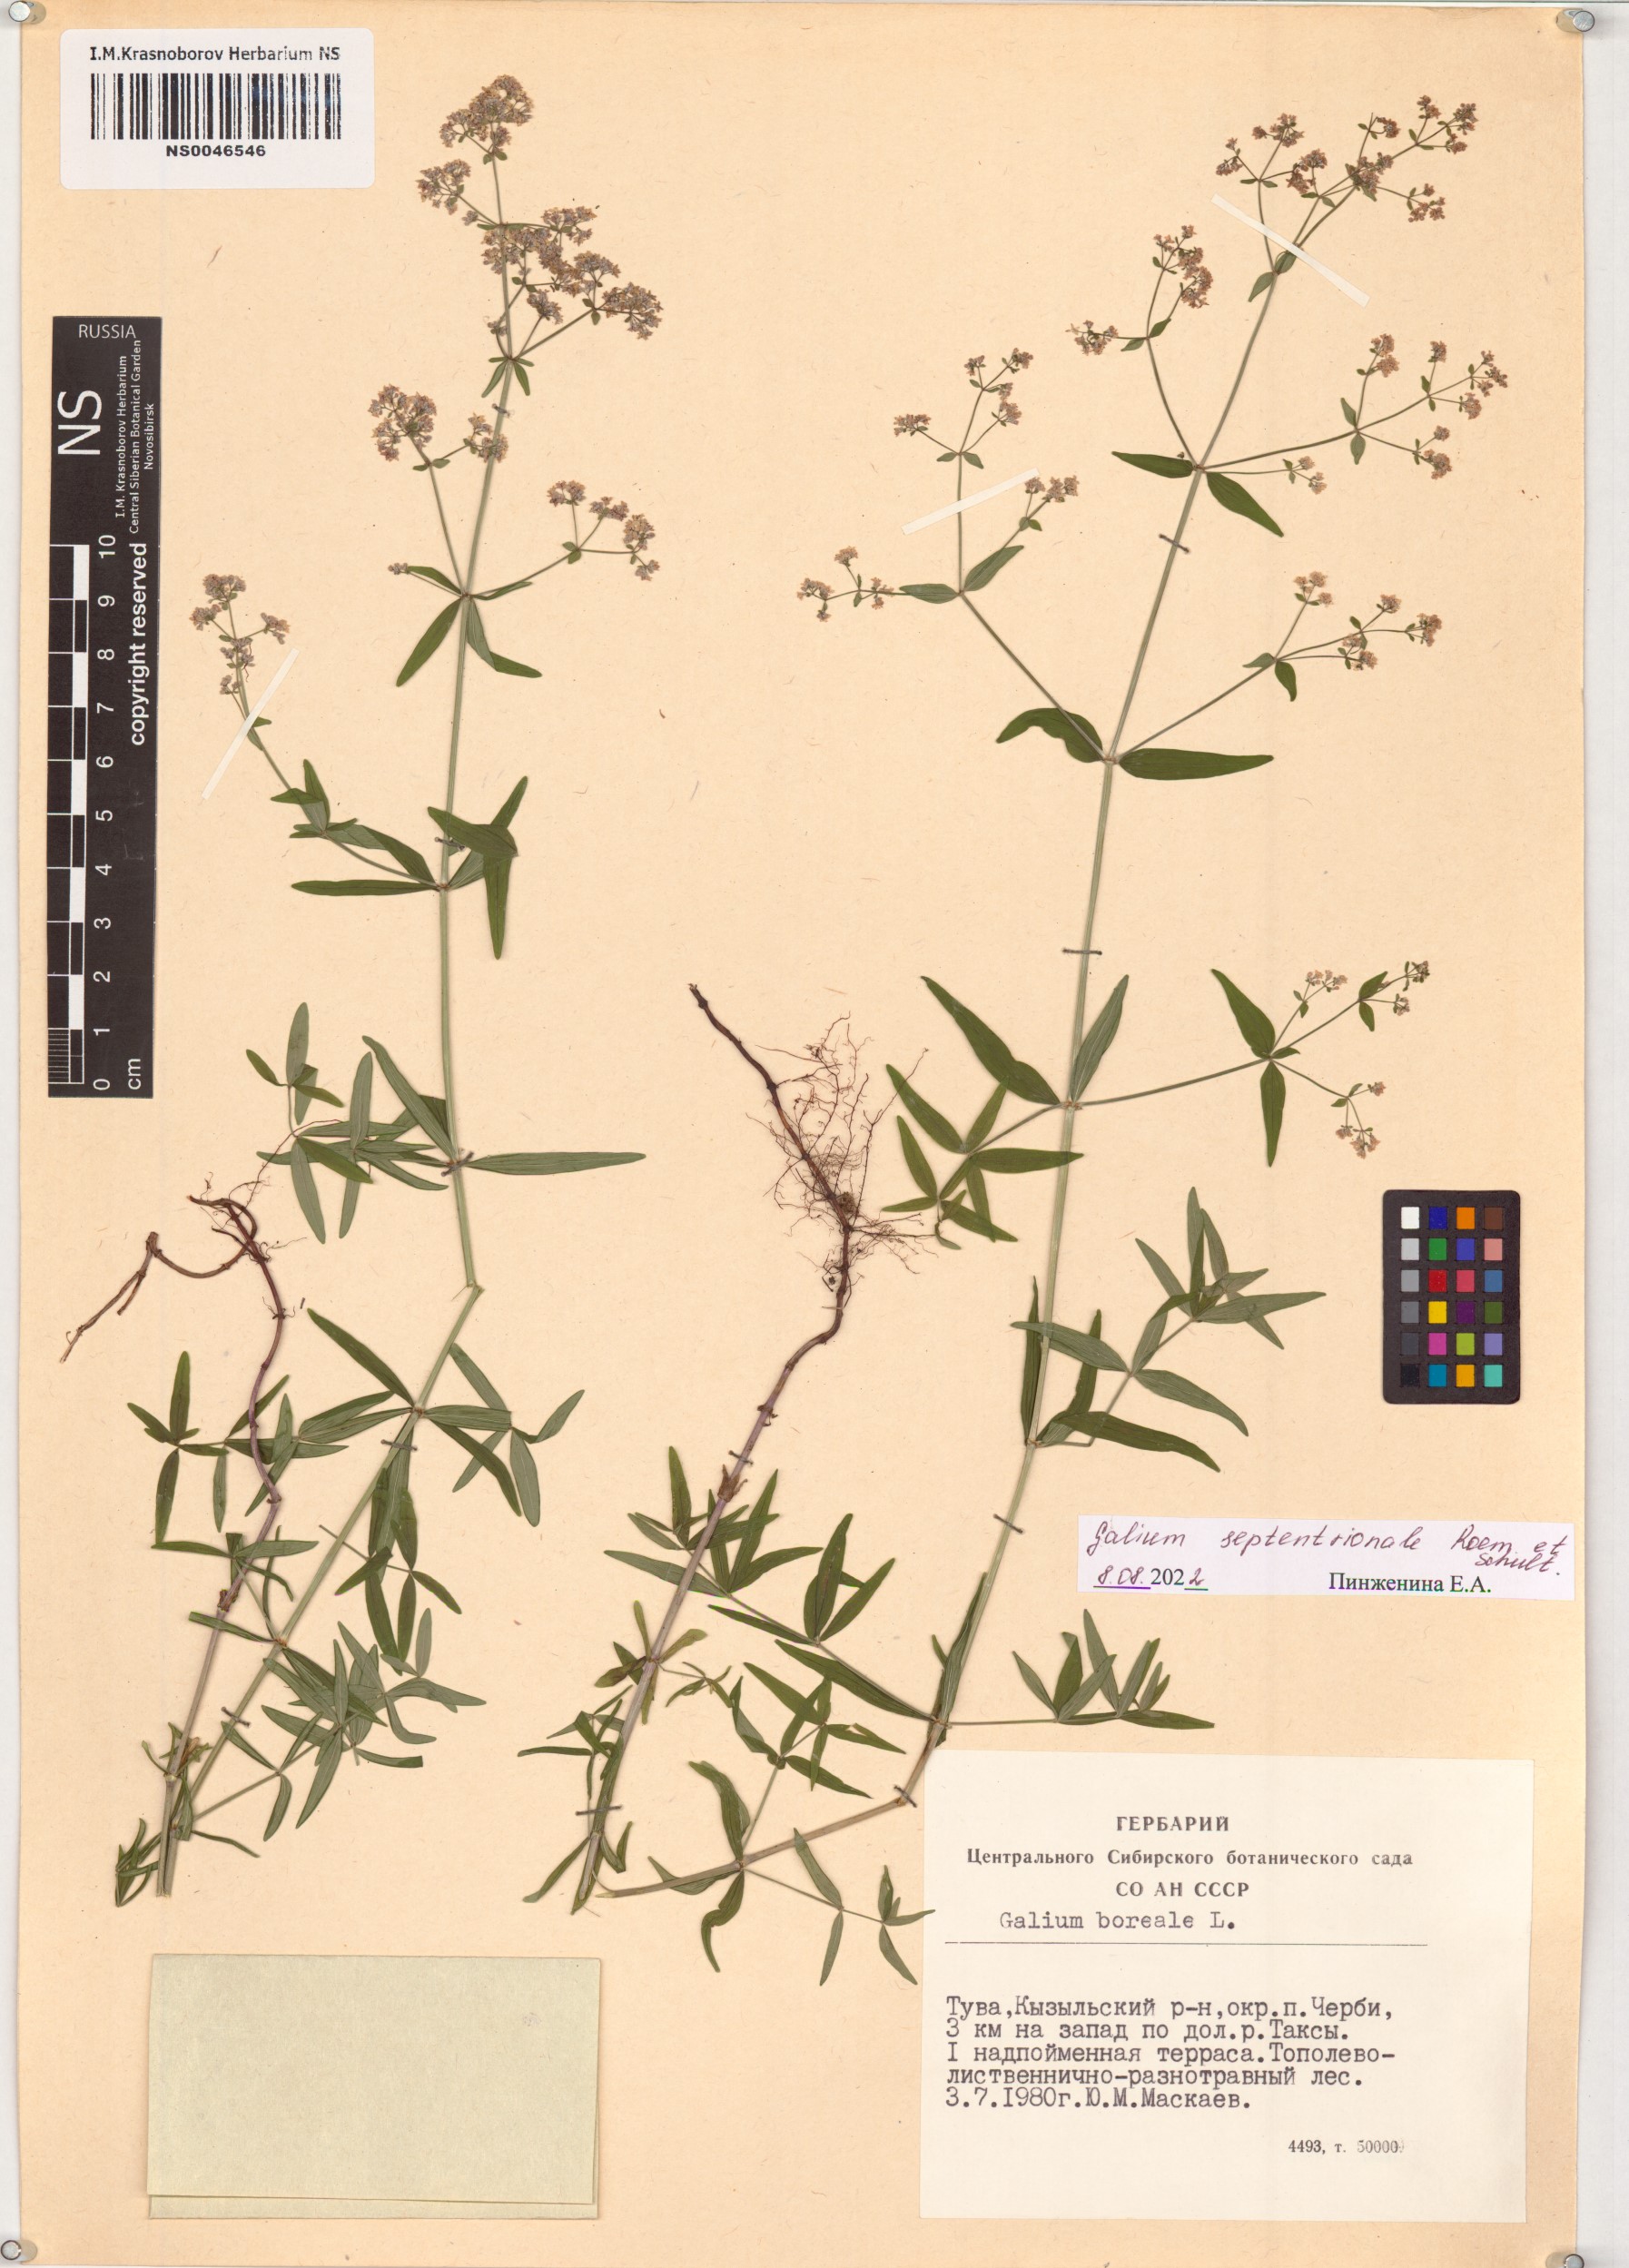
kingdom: Plantae
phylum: Tracheophyta
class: Magnoliopsida
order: Gentianales
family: Rubiaceae
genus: Galium
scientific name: Galium boreale
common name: Northern bedstraw
